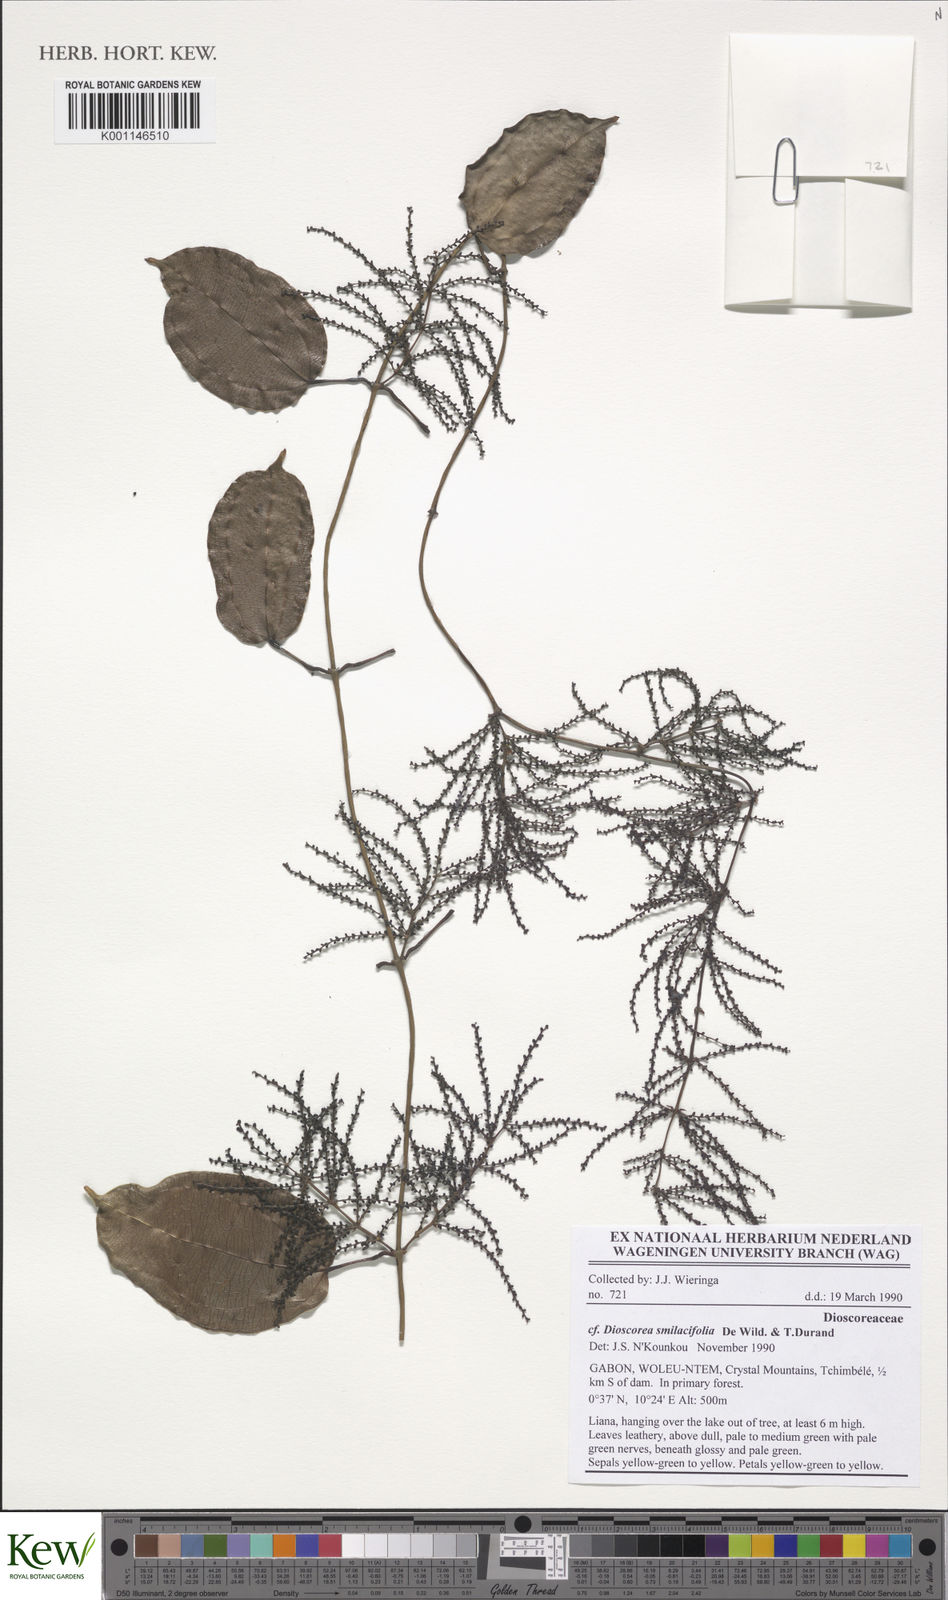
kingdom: Plantae
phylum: Tracheophyta
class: Liliopsida
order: Dioscoreales
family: Dioscoreaceae
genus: Dioscorea
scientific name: Dioscorea smilacifolia
